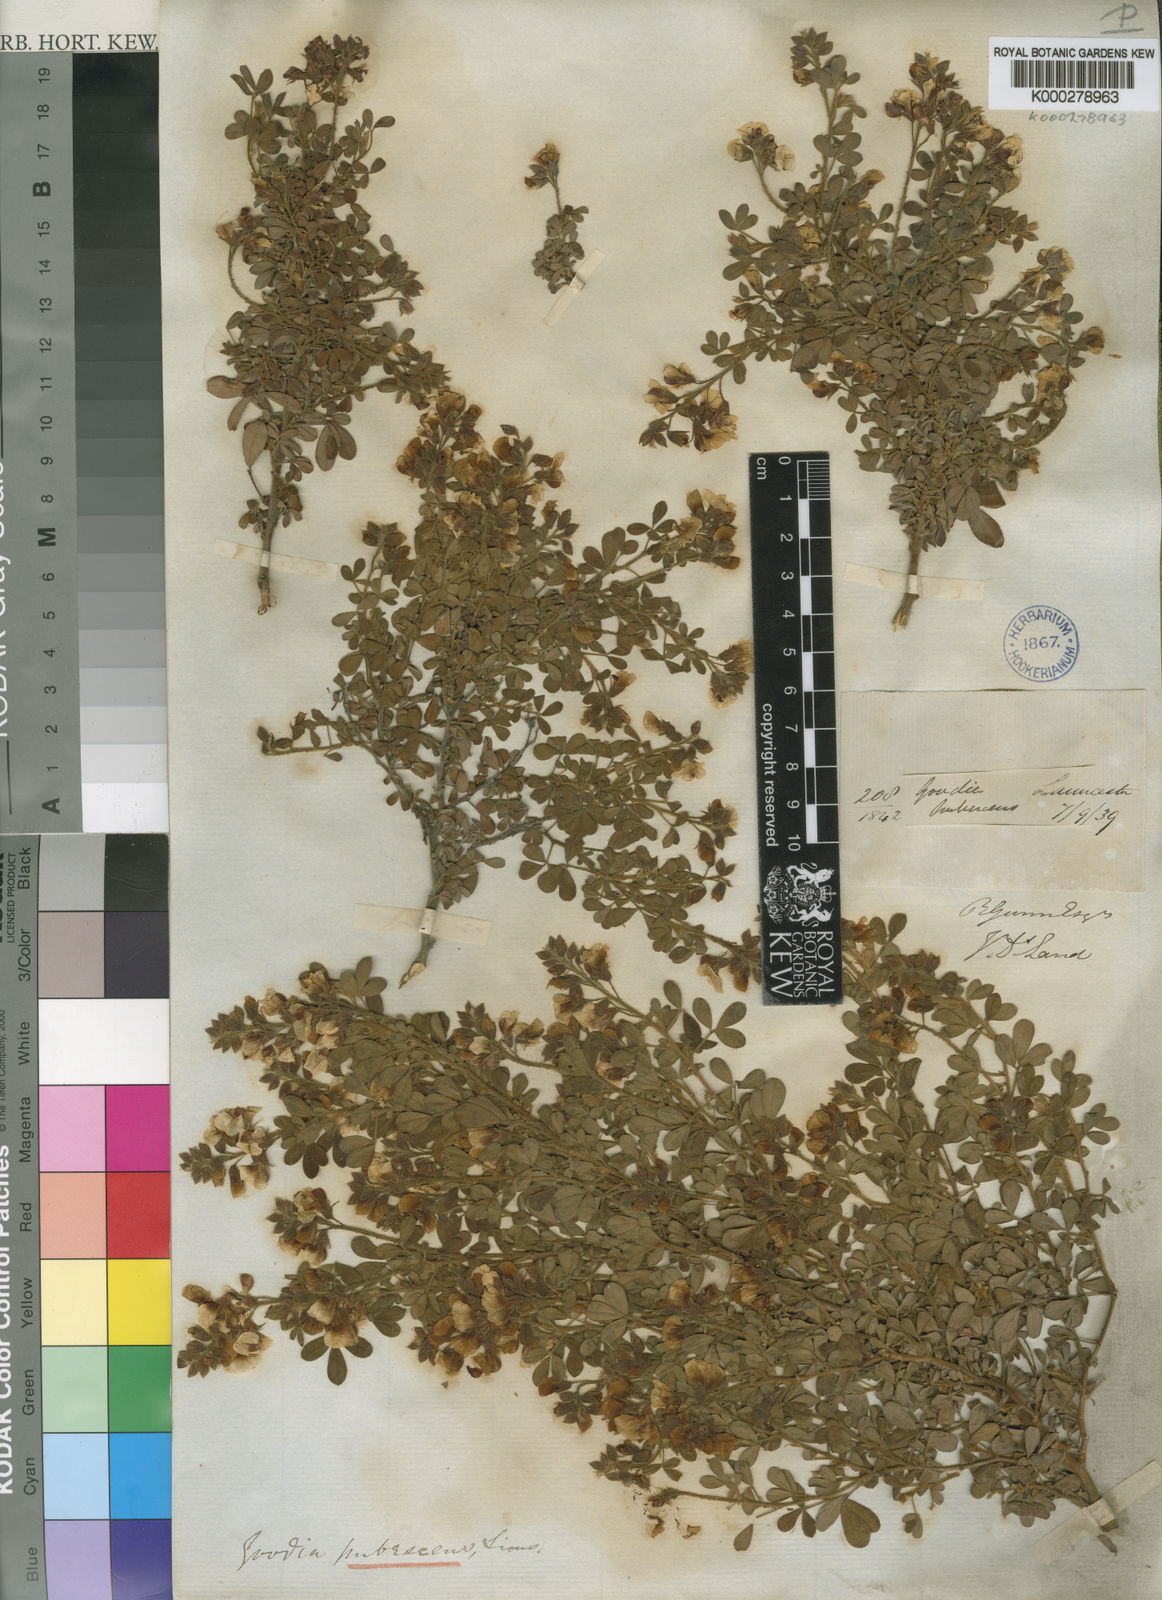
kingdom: Plantae
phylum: Tracheophyta
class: Magnoliopsida
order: Fabales
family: Fabaceae
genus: Goodia
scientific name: Goodia pubescens
